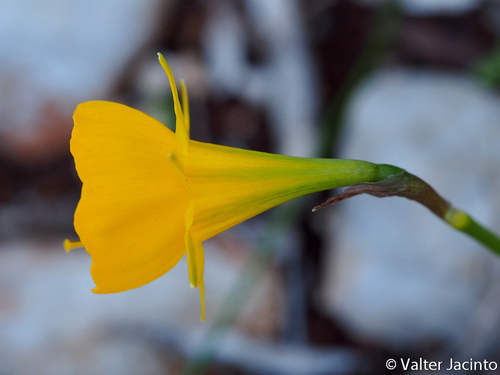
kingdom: Plantae
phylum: Tracheophyta
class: Liliopsida
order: Asparagales
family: Amaryllidaceae
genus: Narcissus
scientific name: Narcissus bulbocodium
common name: Hoop-petticoat daffodil
